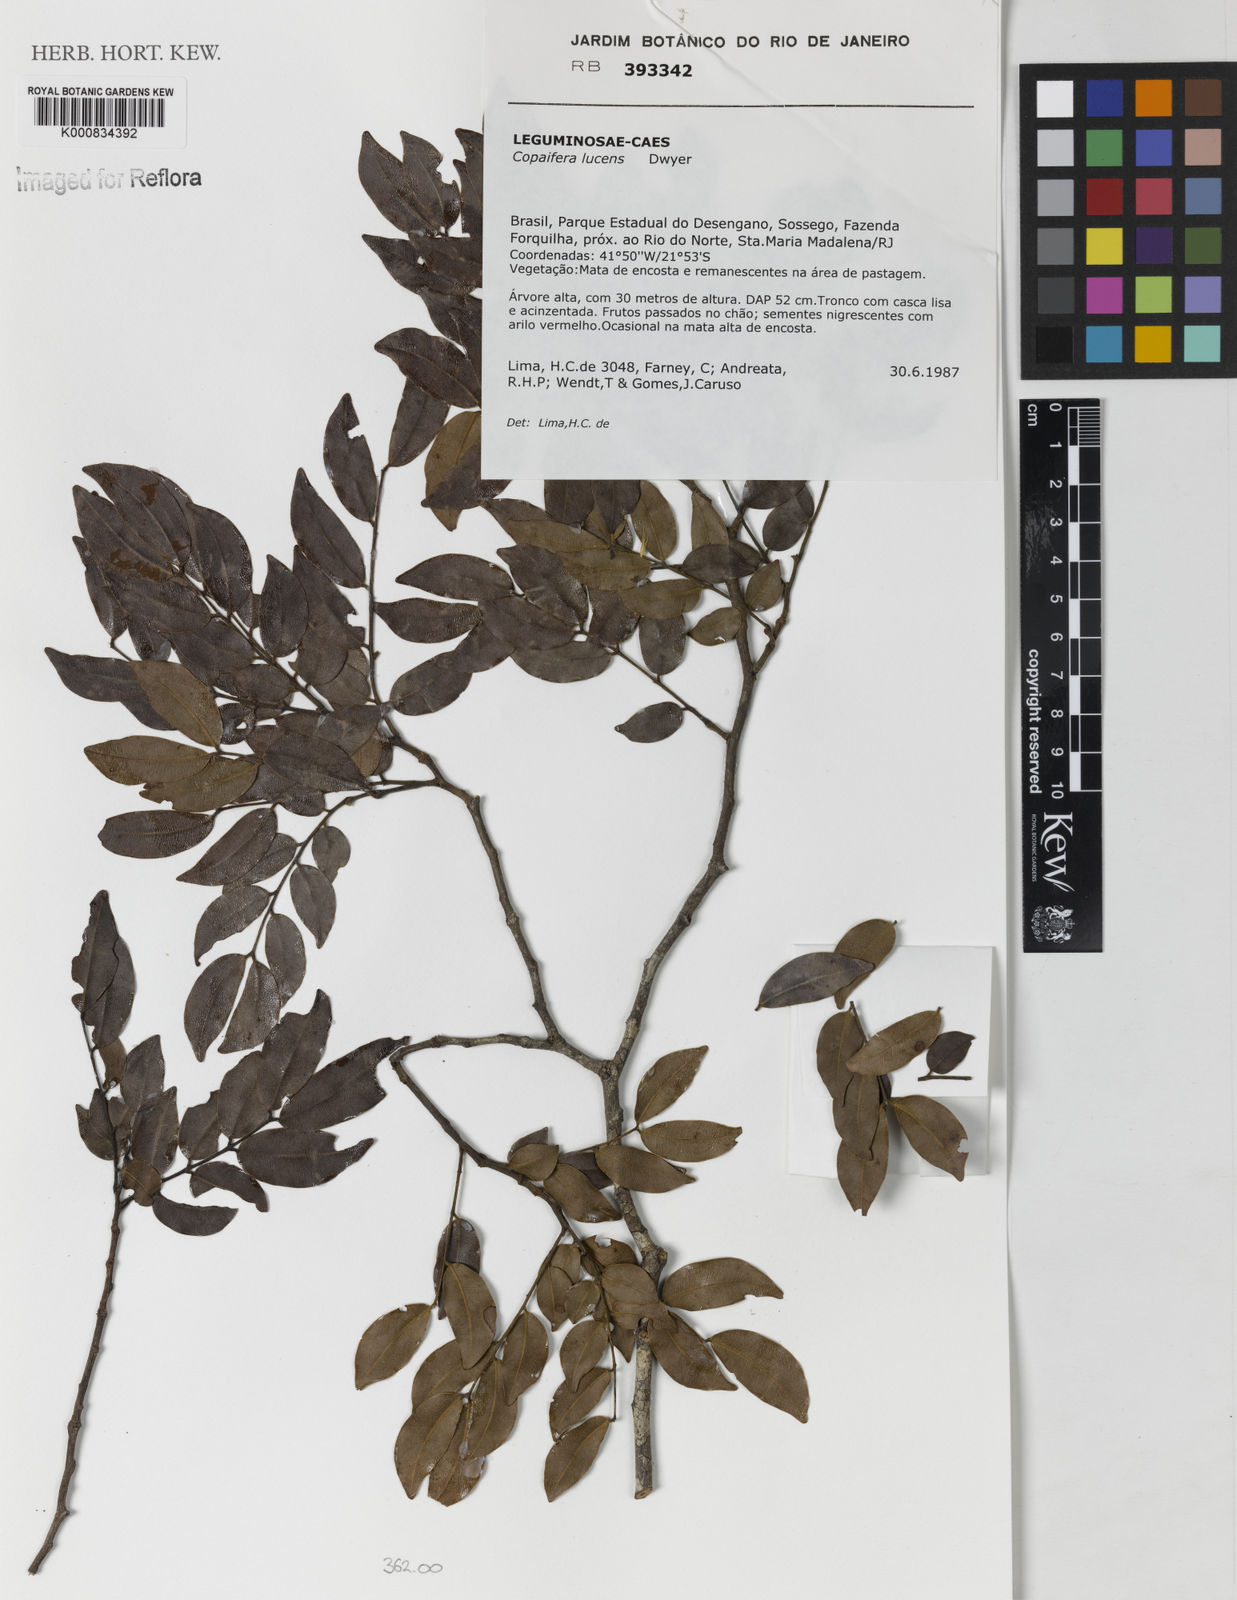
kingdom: Plantae
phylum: Tracheophyta
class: Magnoliopsida
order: Fabales
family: Fabaceae
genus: Copaifera
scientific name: Copaifera lucens
